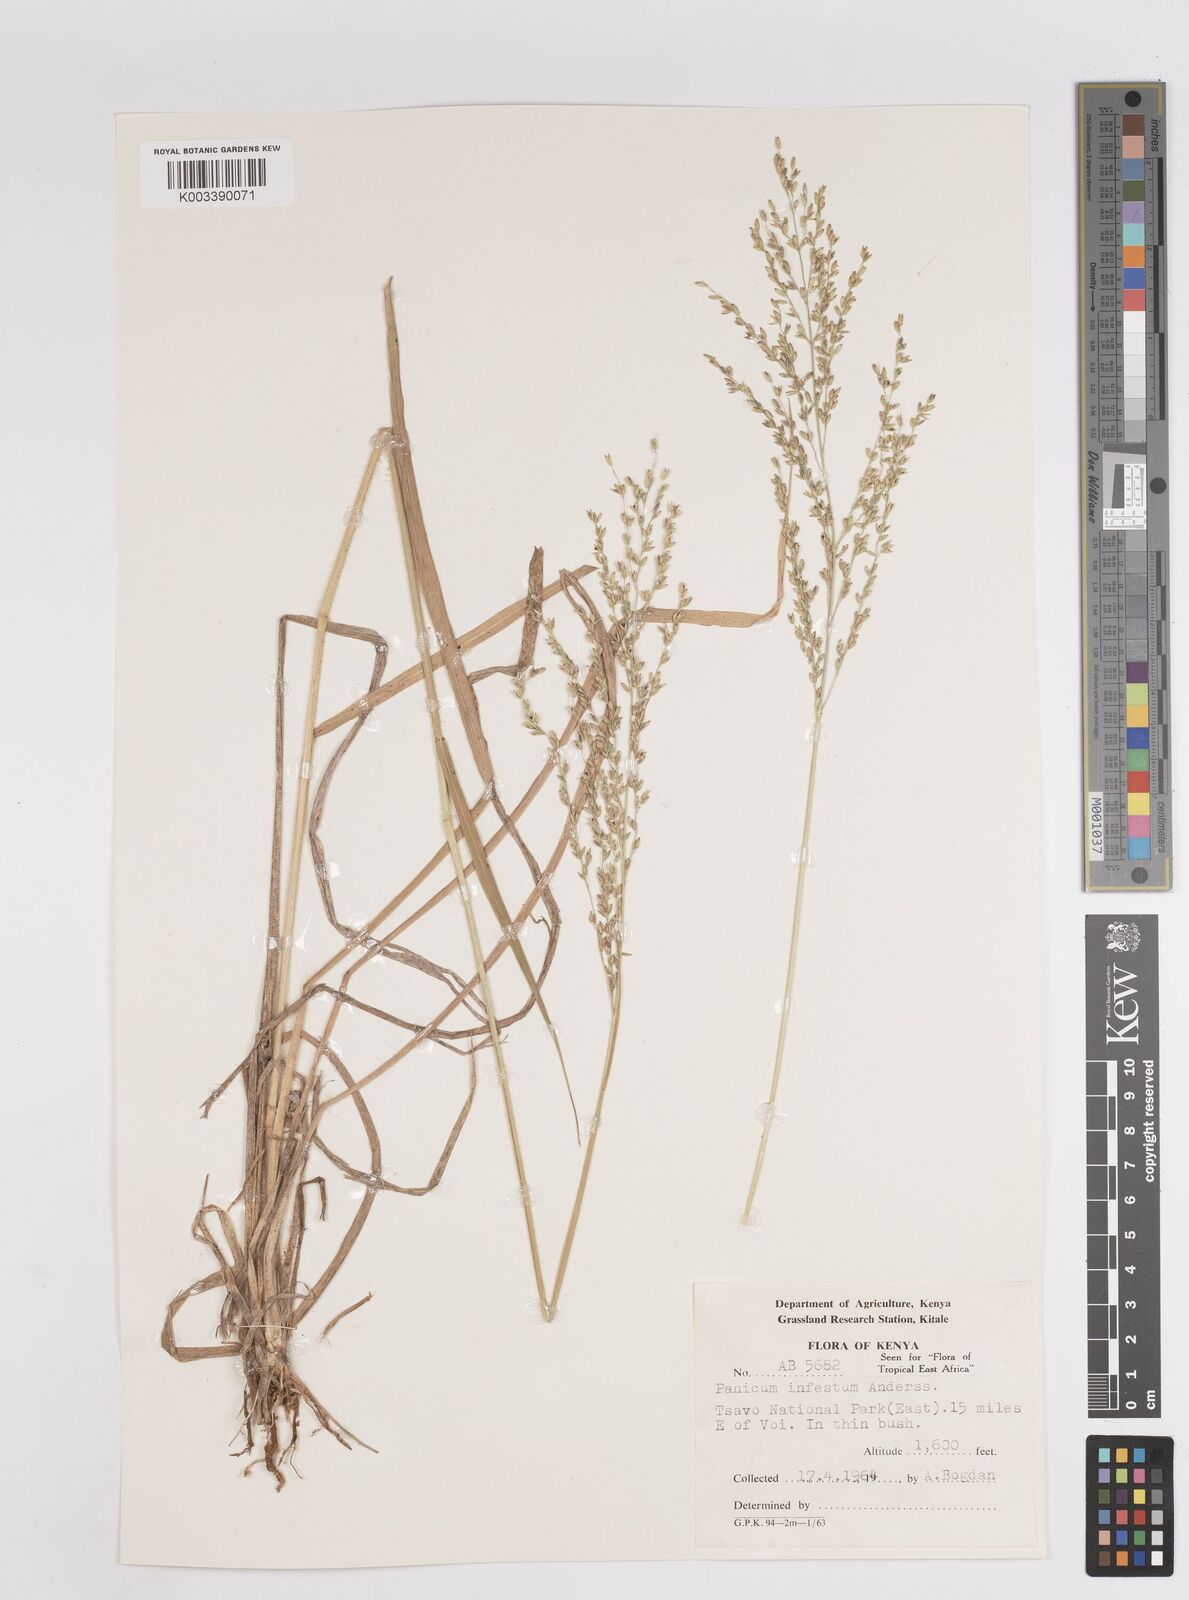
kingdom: Plantae
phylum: Tracheophyta
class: Liliopsida
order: Poales
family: Poaceae
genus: Megathyrsus
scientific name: Megathyrsus infestus
